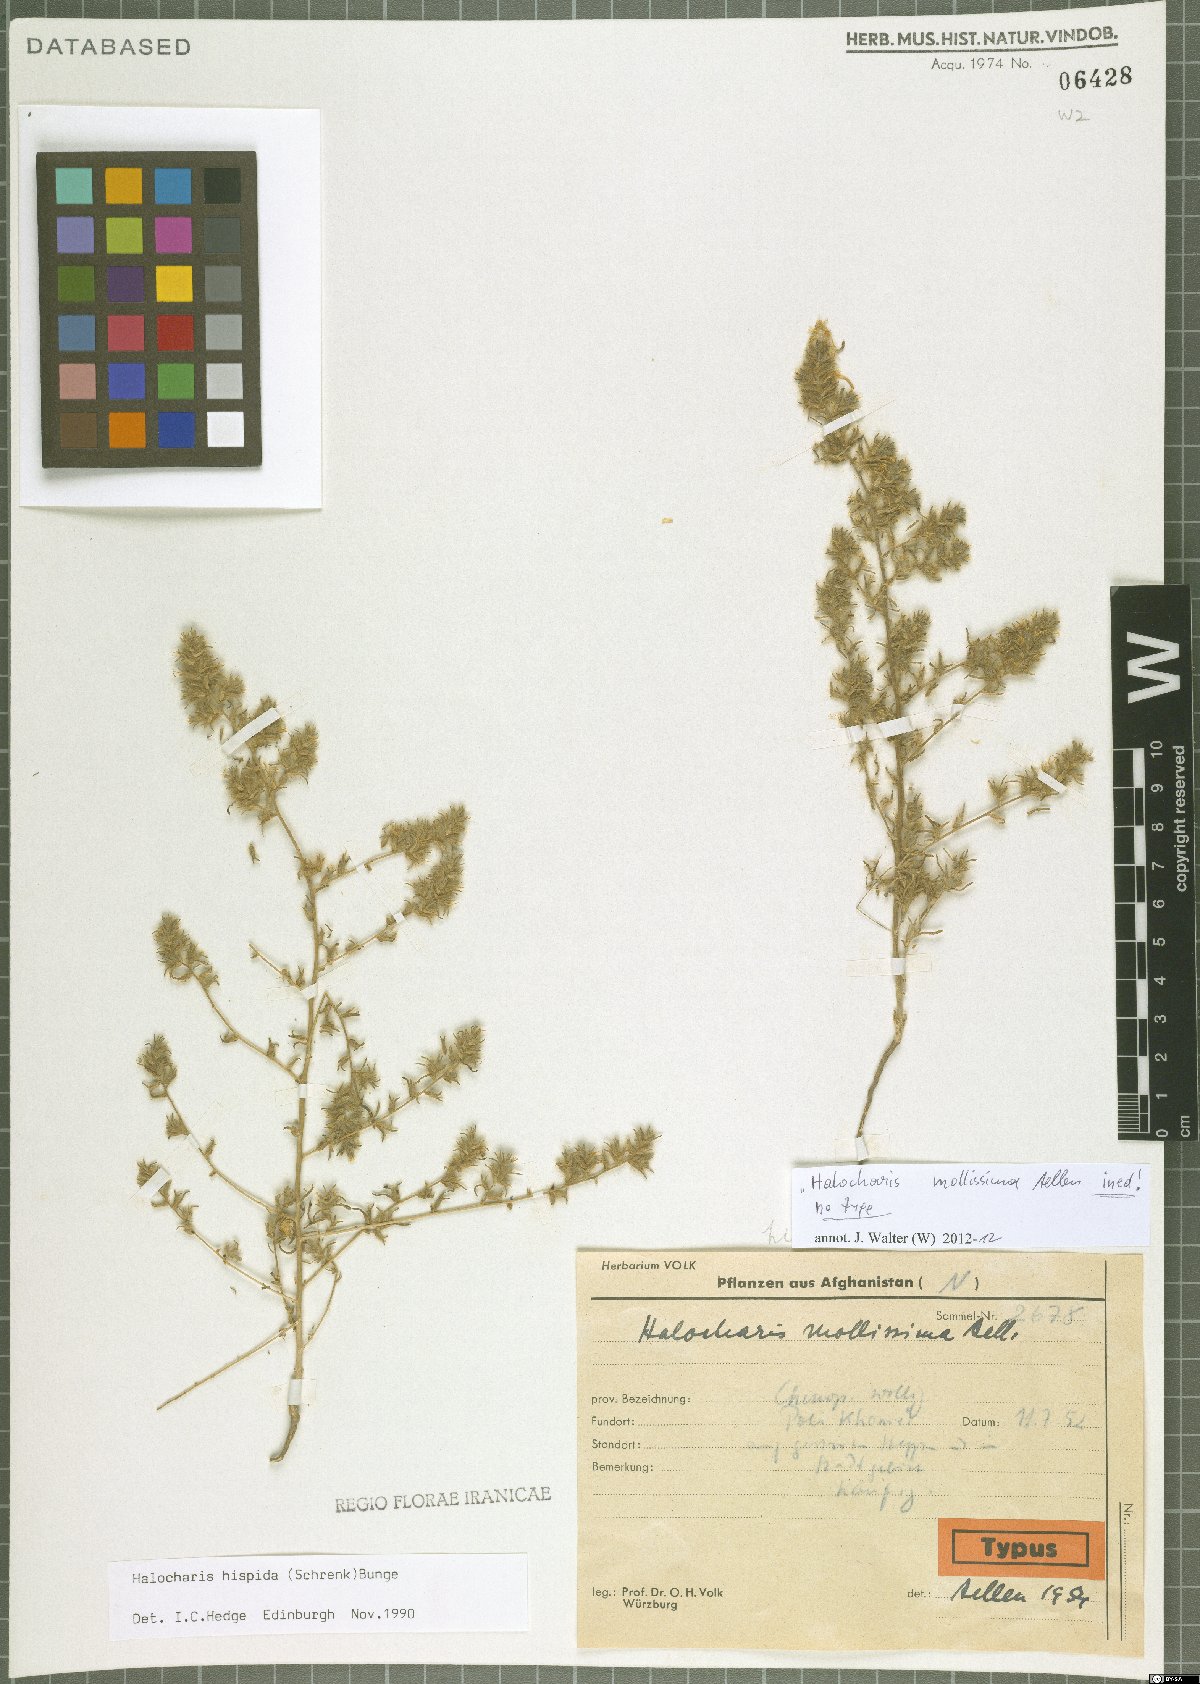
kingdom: Plantae
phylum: Tracheophyta
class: Magnoliopsida
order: Caryophyllales
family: Amaranthaceae
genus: Halocharis
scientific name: Halocharis hispida
